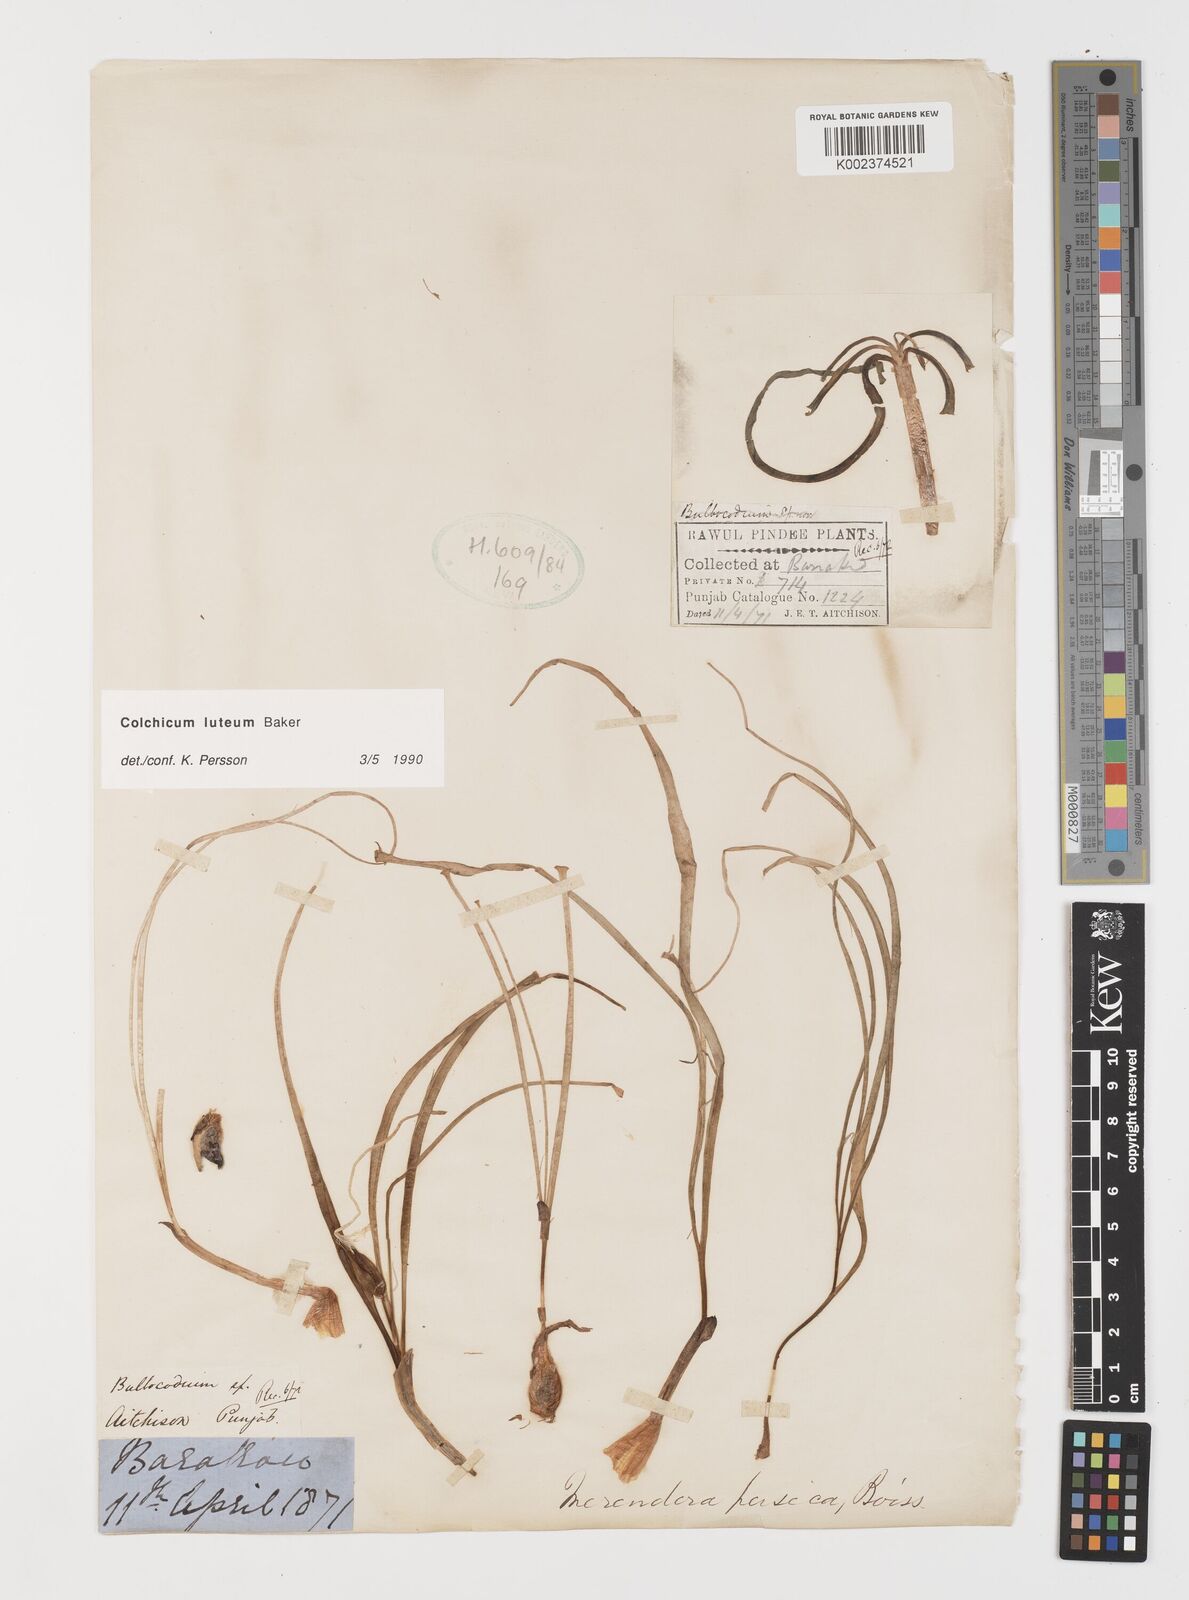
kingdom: Plantae
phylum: Tracheophyta
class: Liliopsida
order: Liliales
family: Colchicaceae
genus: Colchicum
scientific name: Colchicum luteum
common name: Indian colchicum
